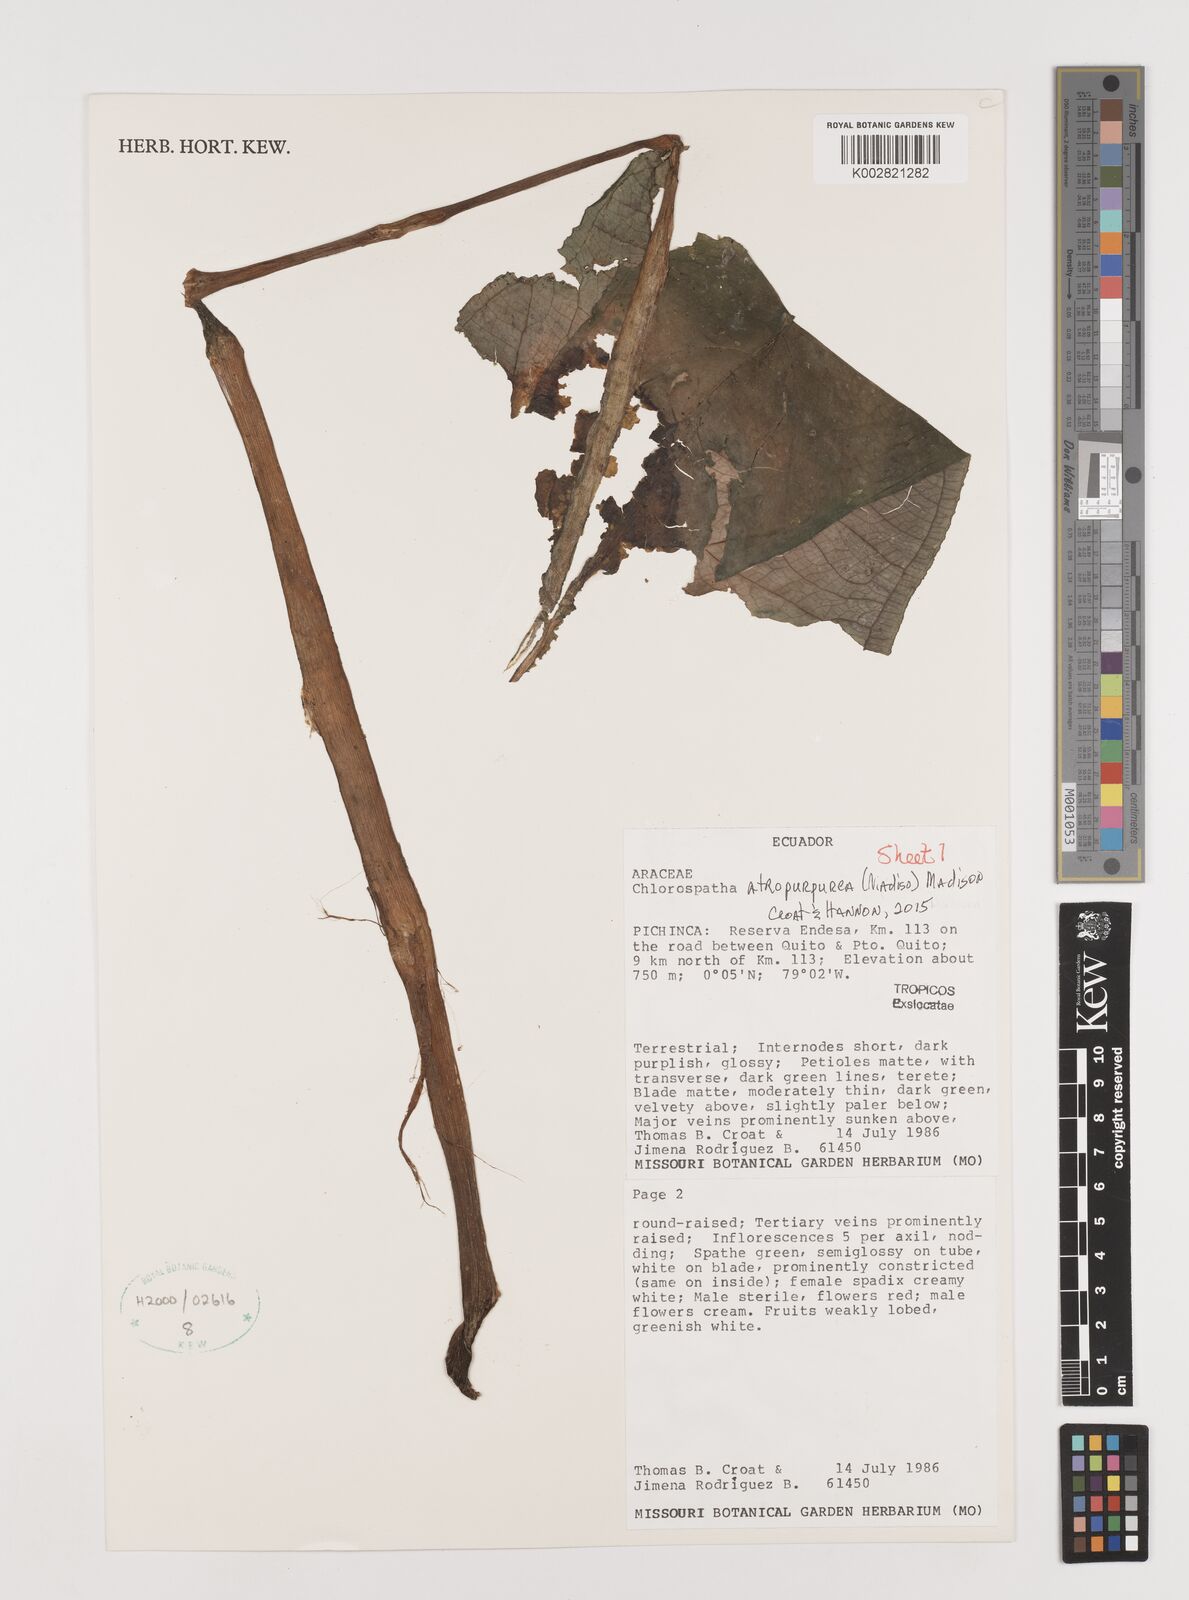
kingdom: Plantae
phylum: Tracheophyta
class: Liliopsida
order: Alismatales
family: Araceae
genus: Chlorospatha
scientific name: Chlorospatha atropurpurea
